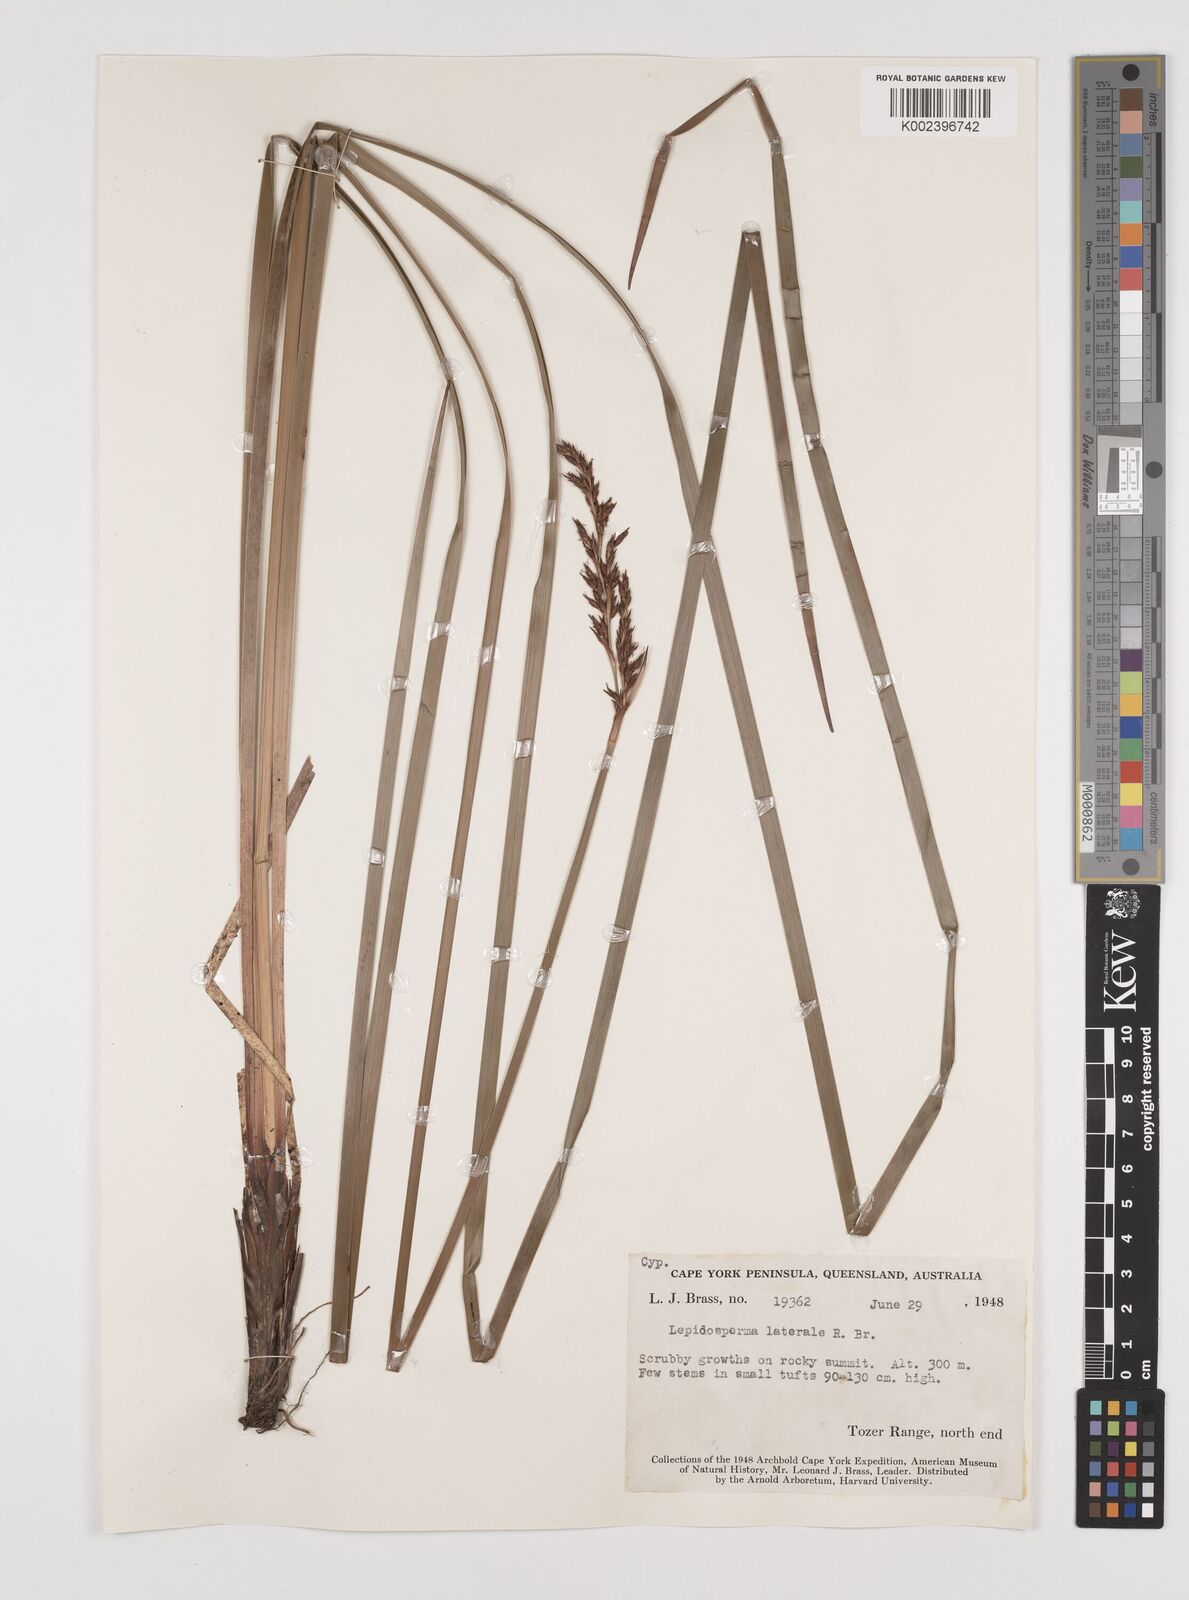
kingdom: Plantae
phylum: Tracheophyta
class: Liliopsida
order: Poales
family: Cyperaceae
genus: Lepidosperma
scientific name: Lepidosperma laterale
